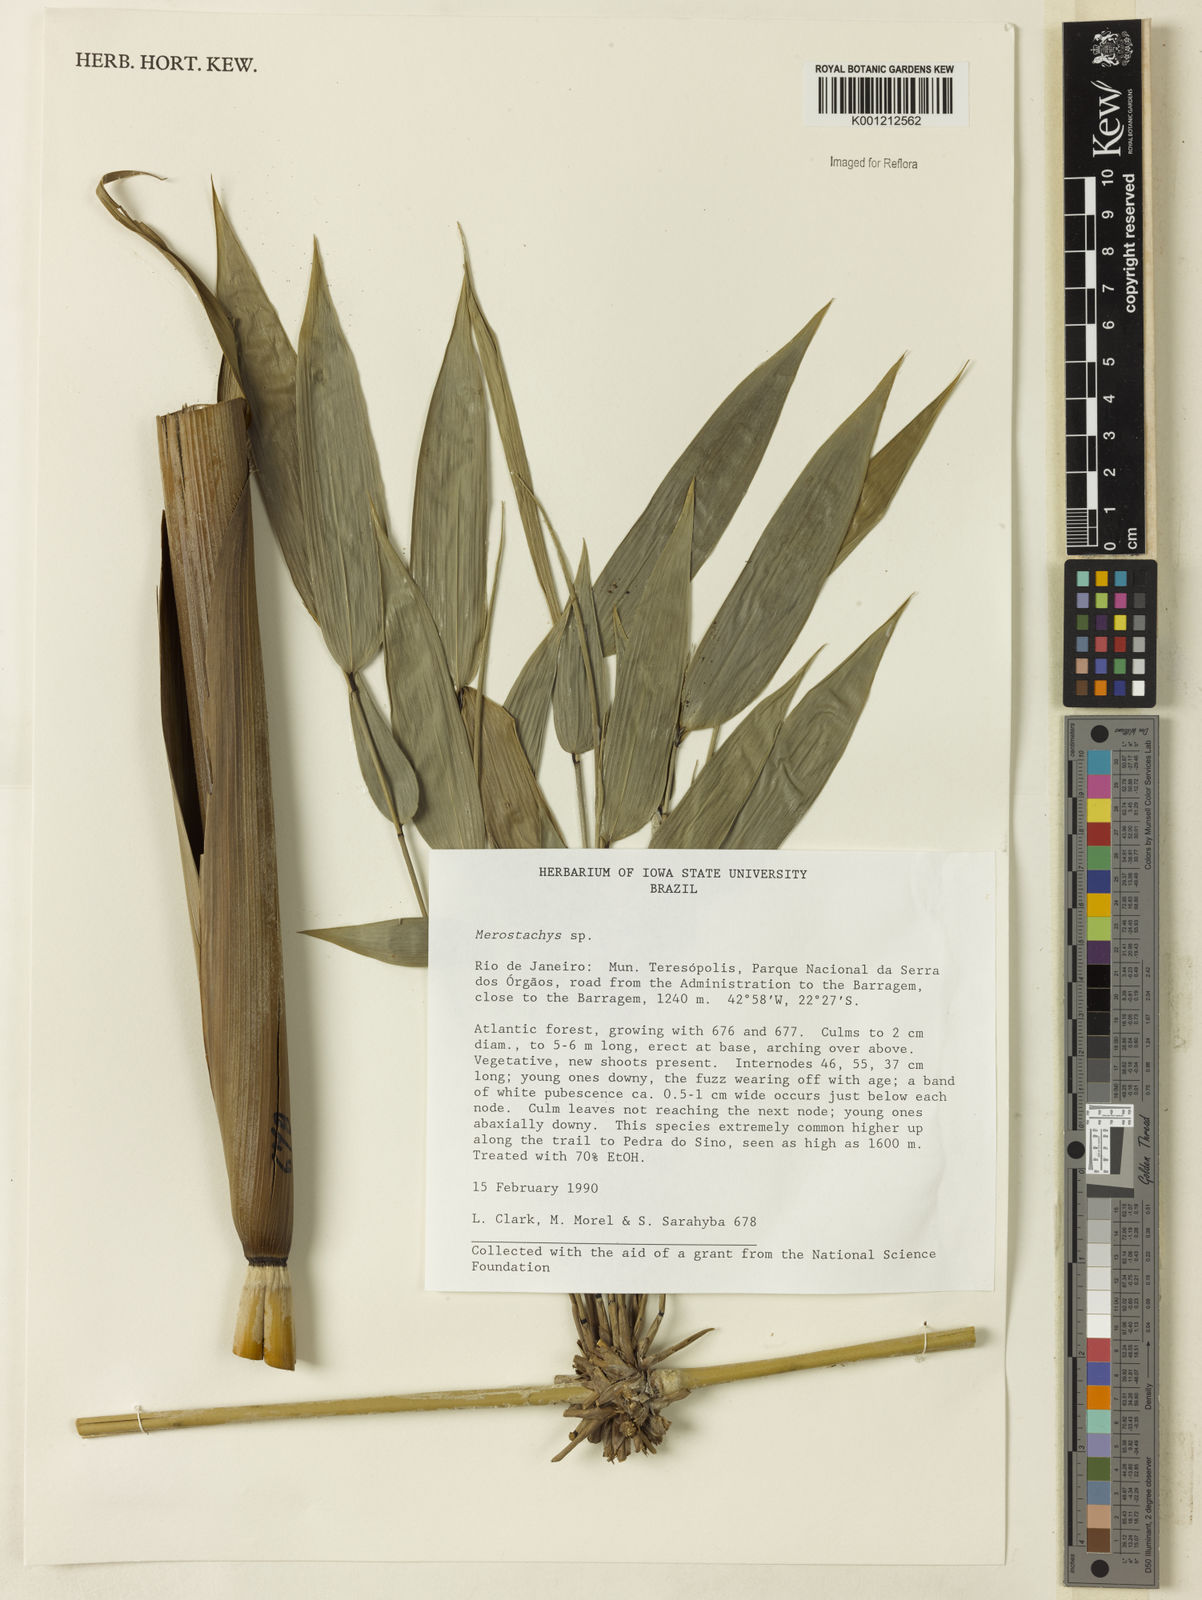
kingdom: Plantae
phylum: Tracheophyta
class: Liliopsida
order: Poales
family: Poaceae
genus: Merostachys
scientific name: Merostachys
